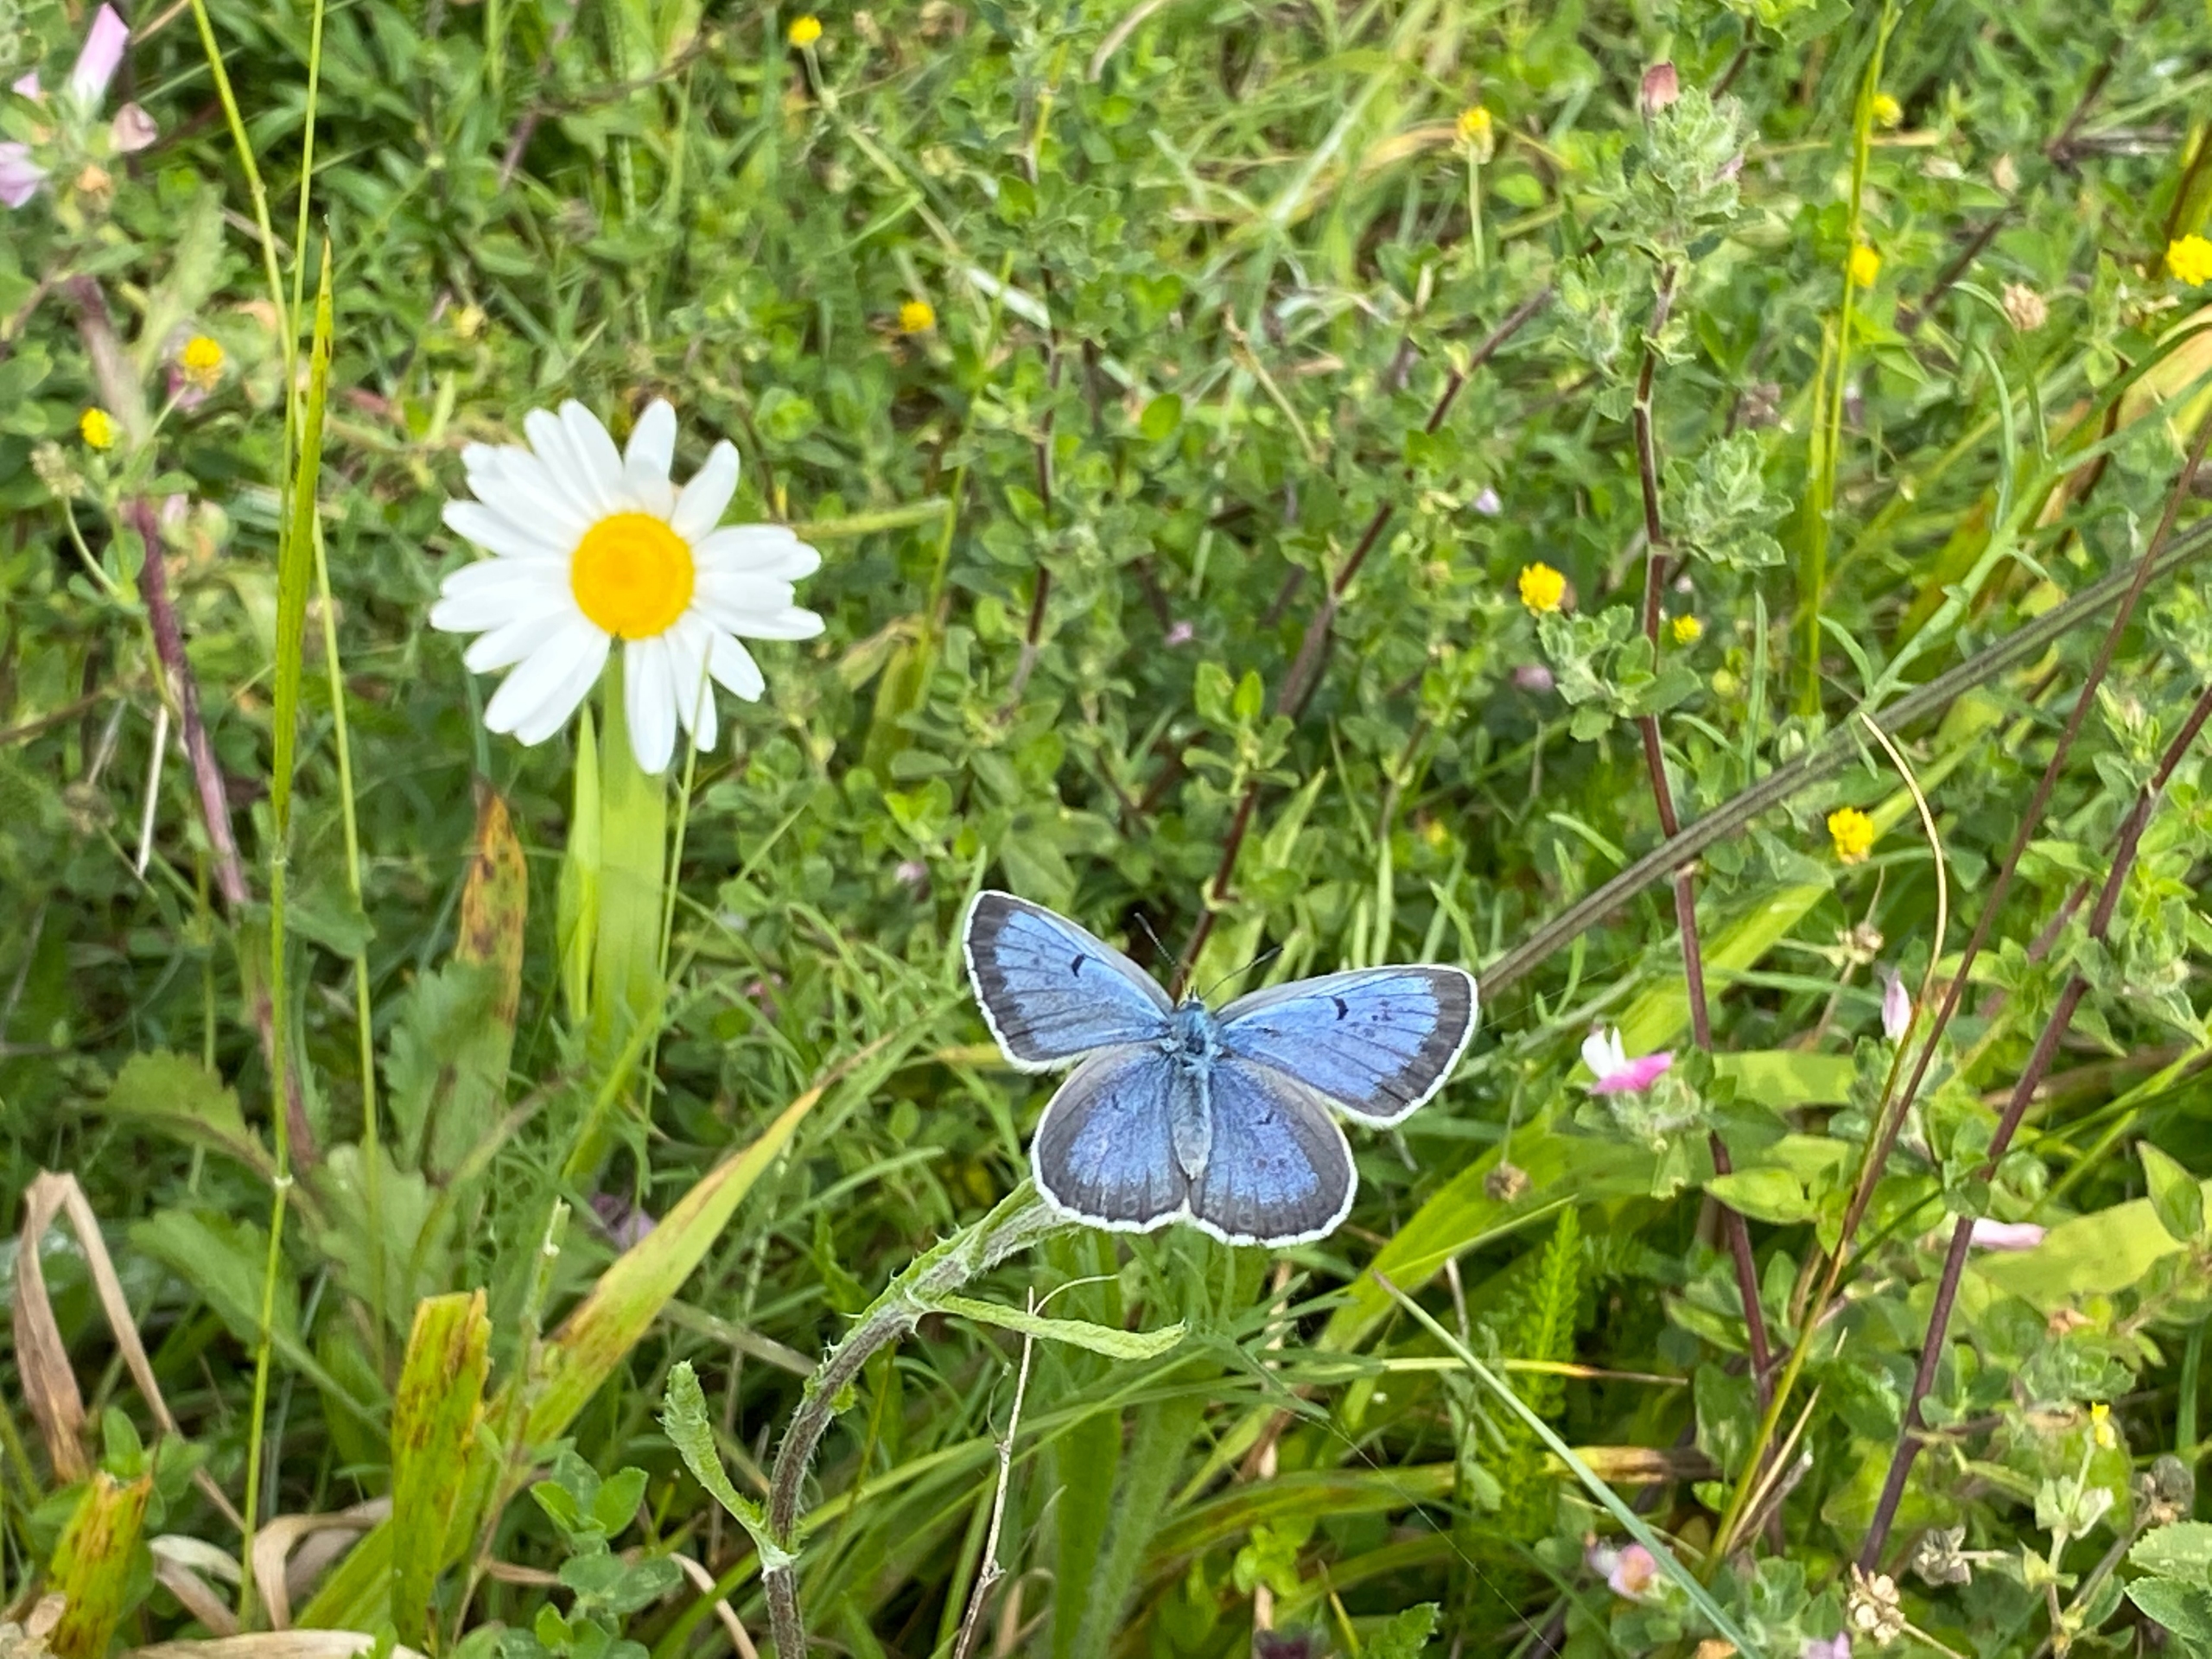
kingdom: Animalia
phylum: Arthropoda
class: Insecta
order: Lepidoptera
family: Lycaenidae
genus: Maculinea
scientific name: Maculinea arion
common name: Sortplettet blåfugl
